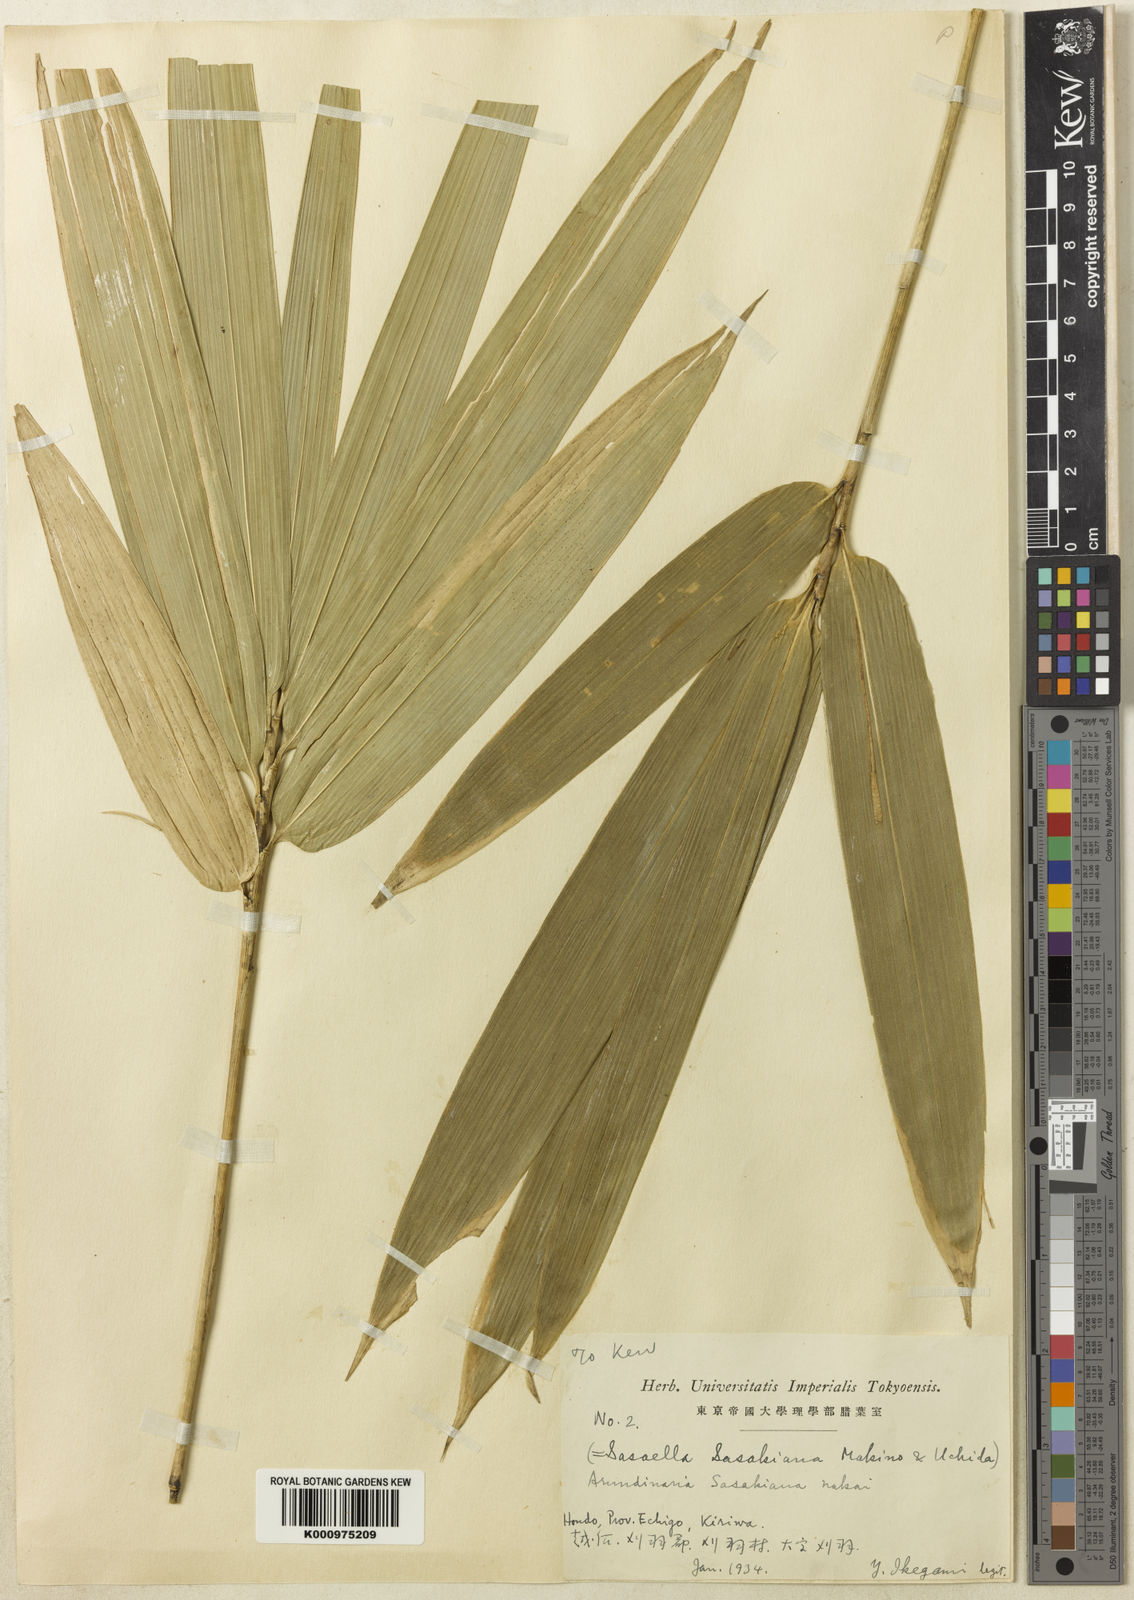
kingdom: Plantae
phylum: Tracheophyta
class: Liliopsida
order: Poales
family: Poaceae
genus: Sasaella
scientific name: Sasaella masamuneana
